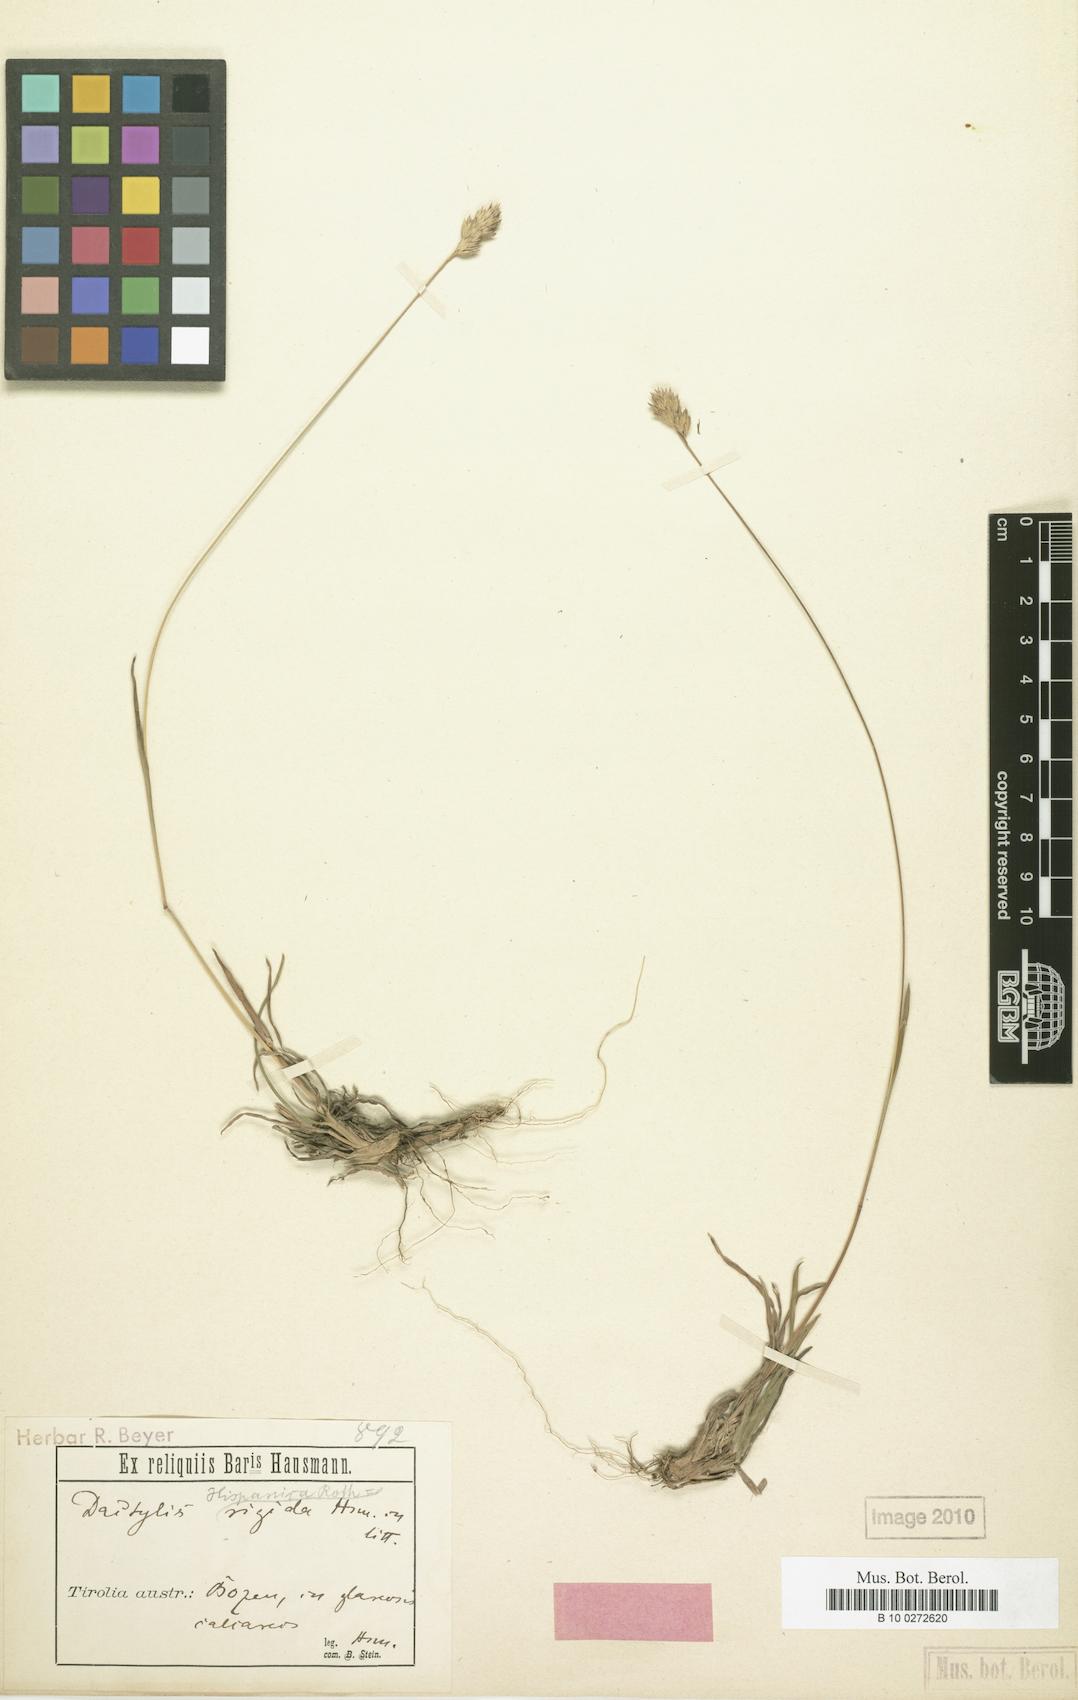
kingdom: Plantae
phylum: Tracheophyta
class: Liliopsida
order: Poales
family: Poaceae
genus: Dactylis
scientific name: Dactylis glomerata
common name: Orchardgrass
